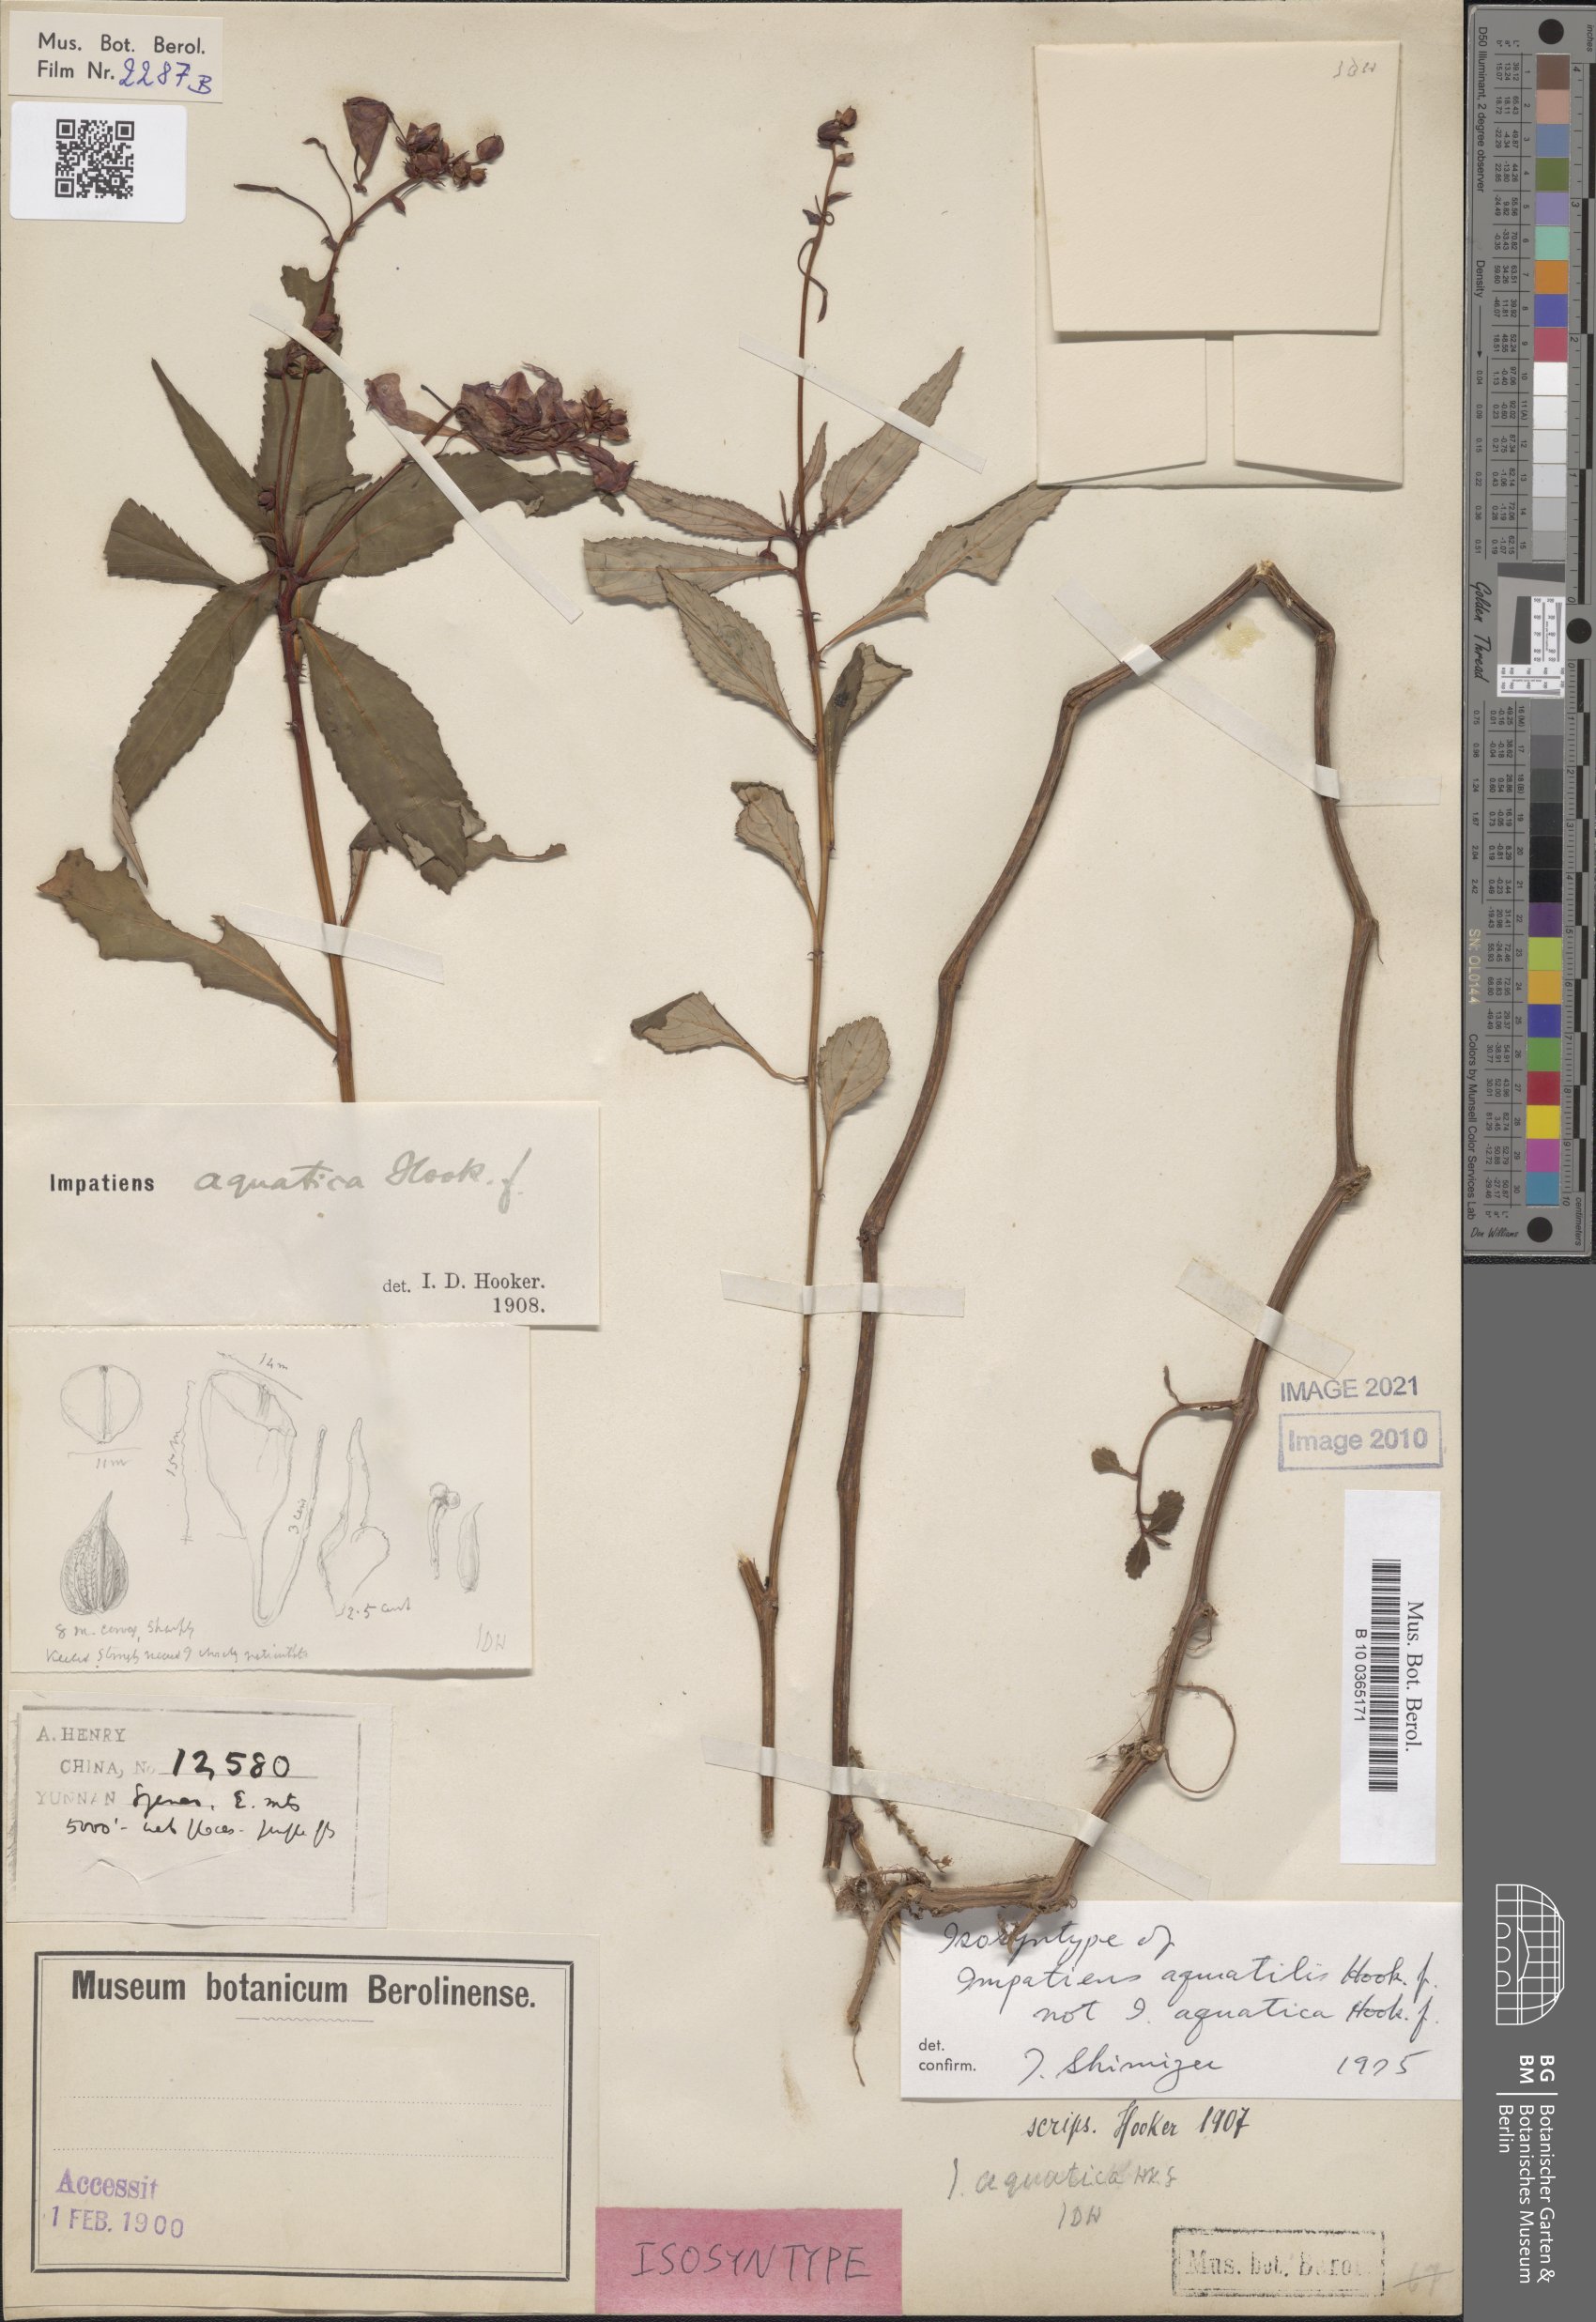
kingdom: Plantae
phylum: Tracheophyta
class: Magnoliopsida
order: Ericales
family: Balsaminaceae
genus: Impatiens
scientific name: Impatiens aquatilis
